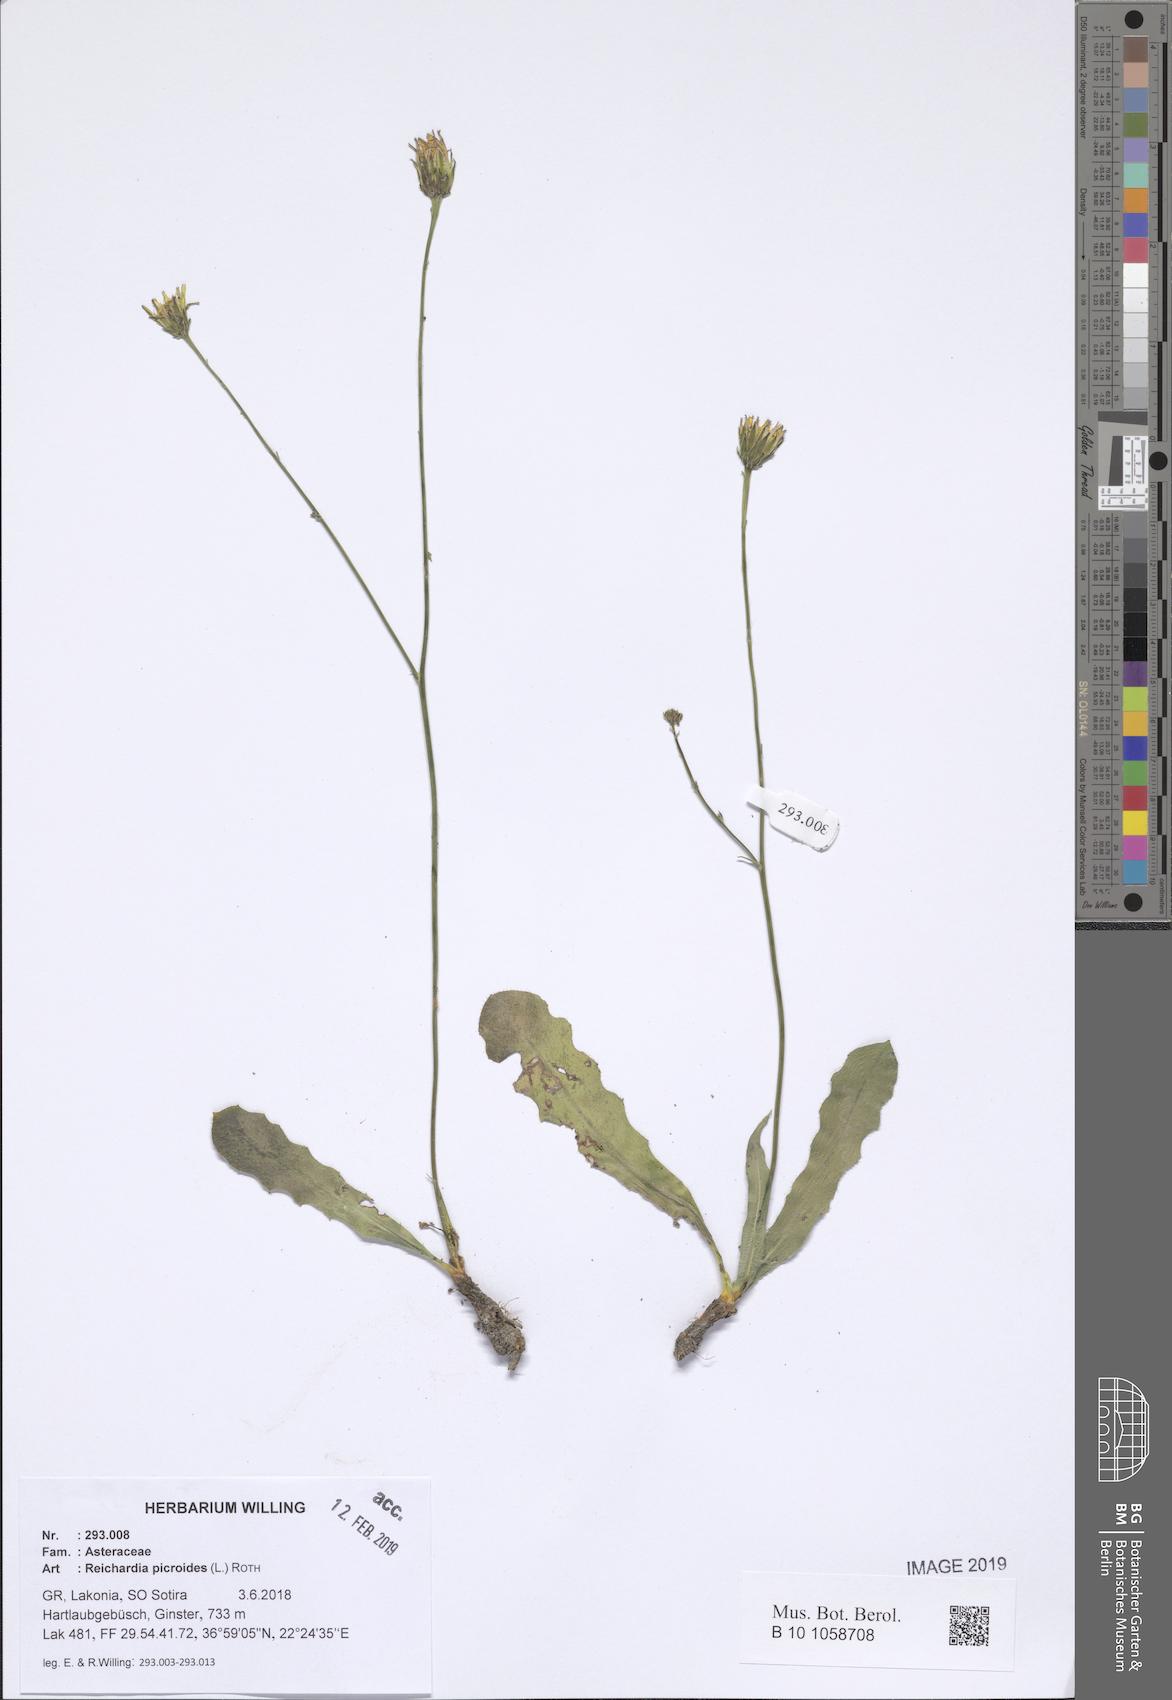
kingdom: Plantae
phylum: Tracheophyta
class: Magnoliopsida
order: Asterales
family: Asteraceae
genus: Reichardia
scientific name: Reichardia picroides
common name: Common brighteyes
